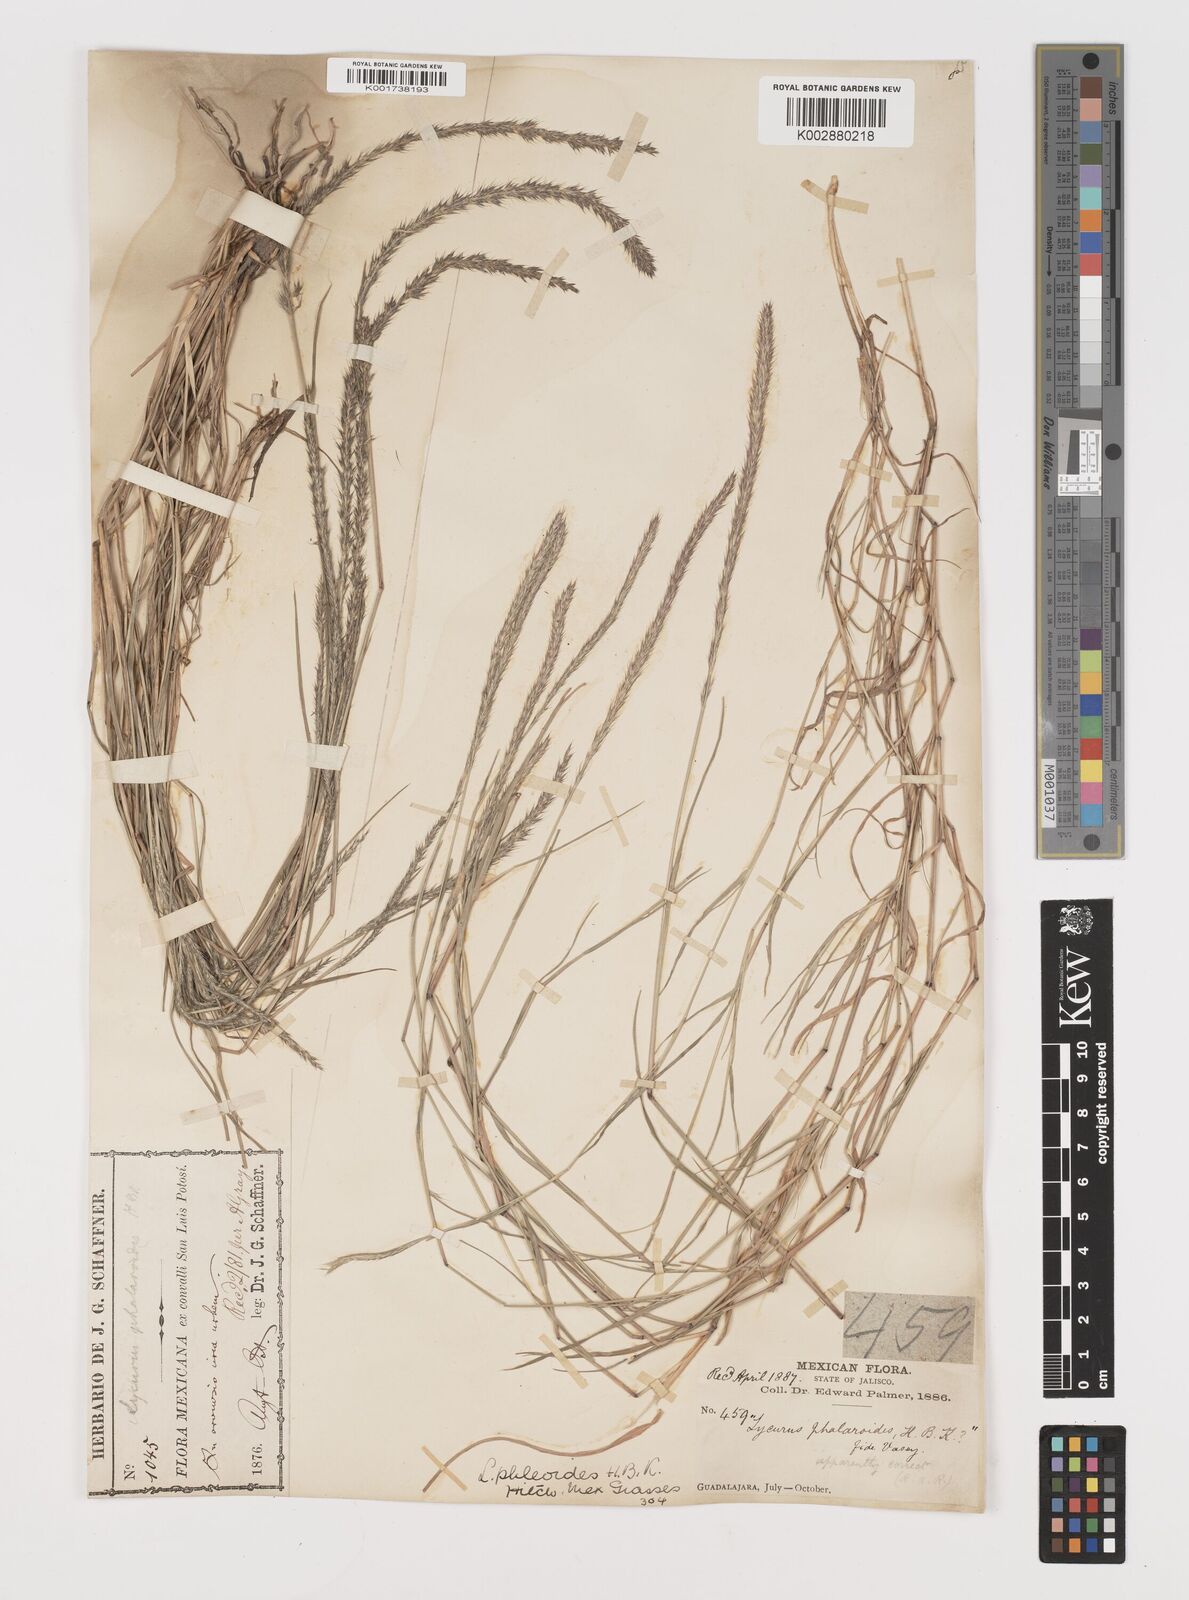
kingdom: Plantae
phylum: Tracheophyta
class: Liliopsida
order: Poales
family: Poaceae
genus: Muhlenbergia
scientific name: Muhlenbergia phleoides
